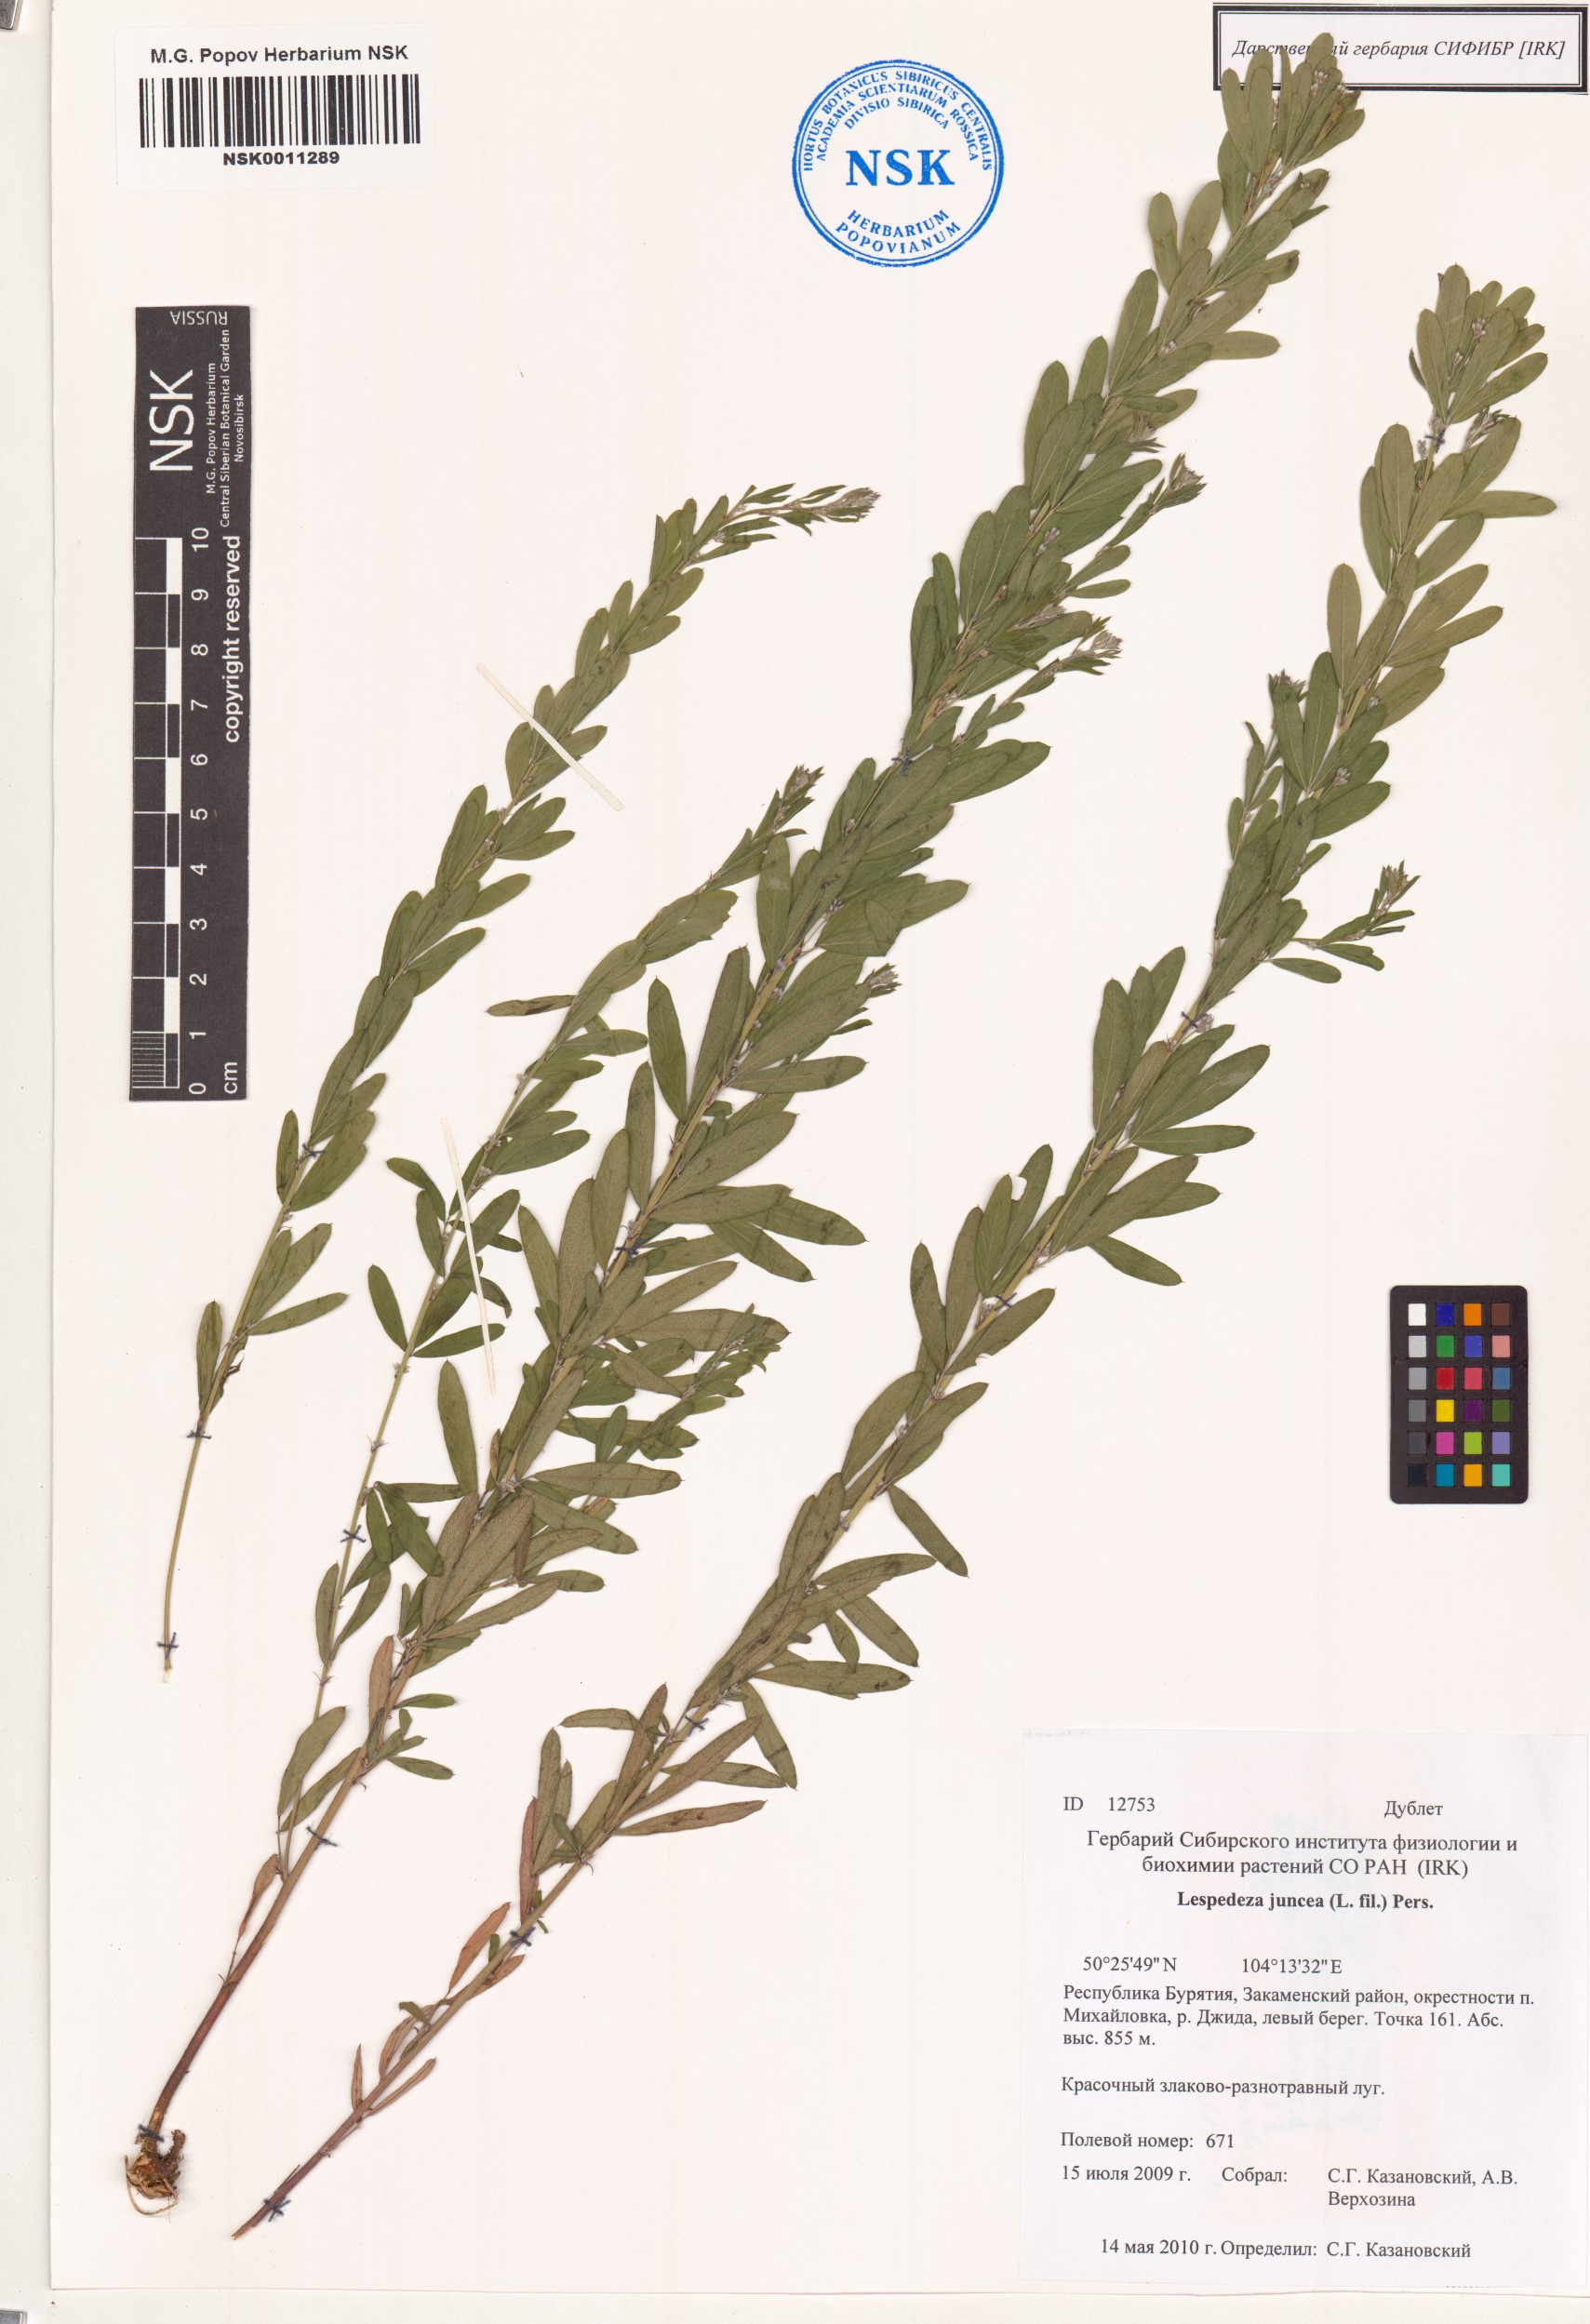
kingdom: Plantae
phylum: Tracheophyta
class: Magnoliopsida
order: Fabales
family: Fabaceae
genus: Lespedeza
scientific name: Lespedeza juncea
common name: Siberian lespedeza
